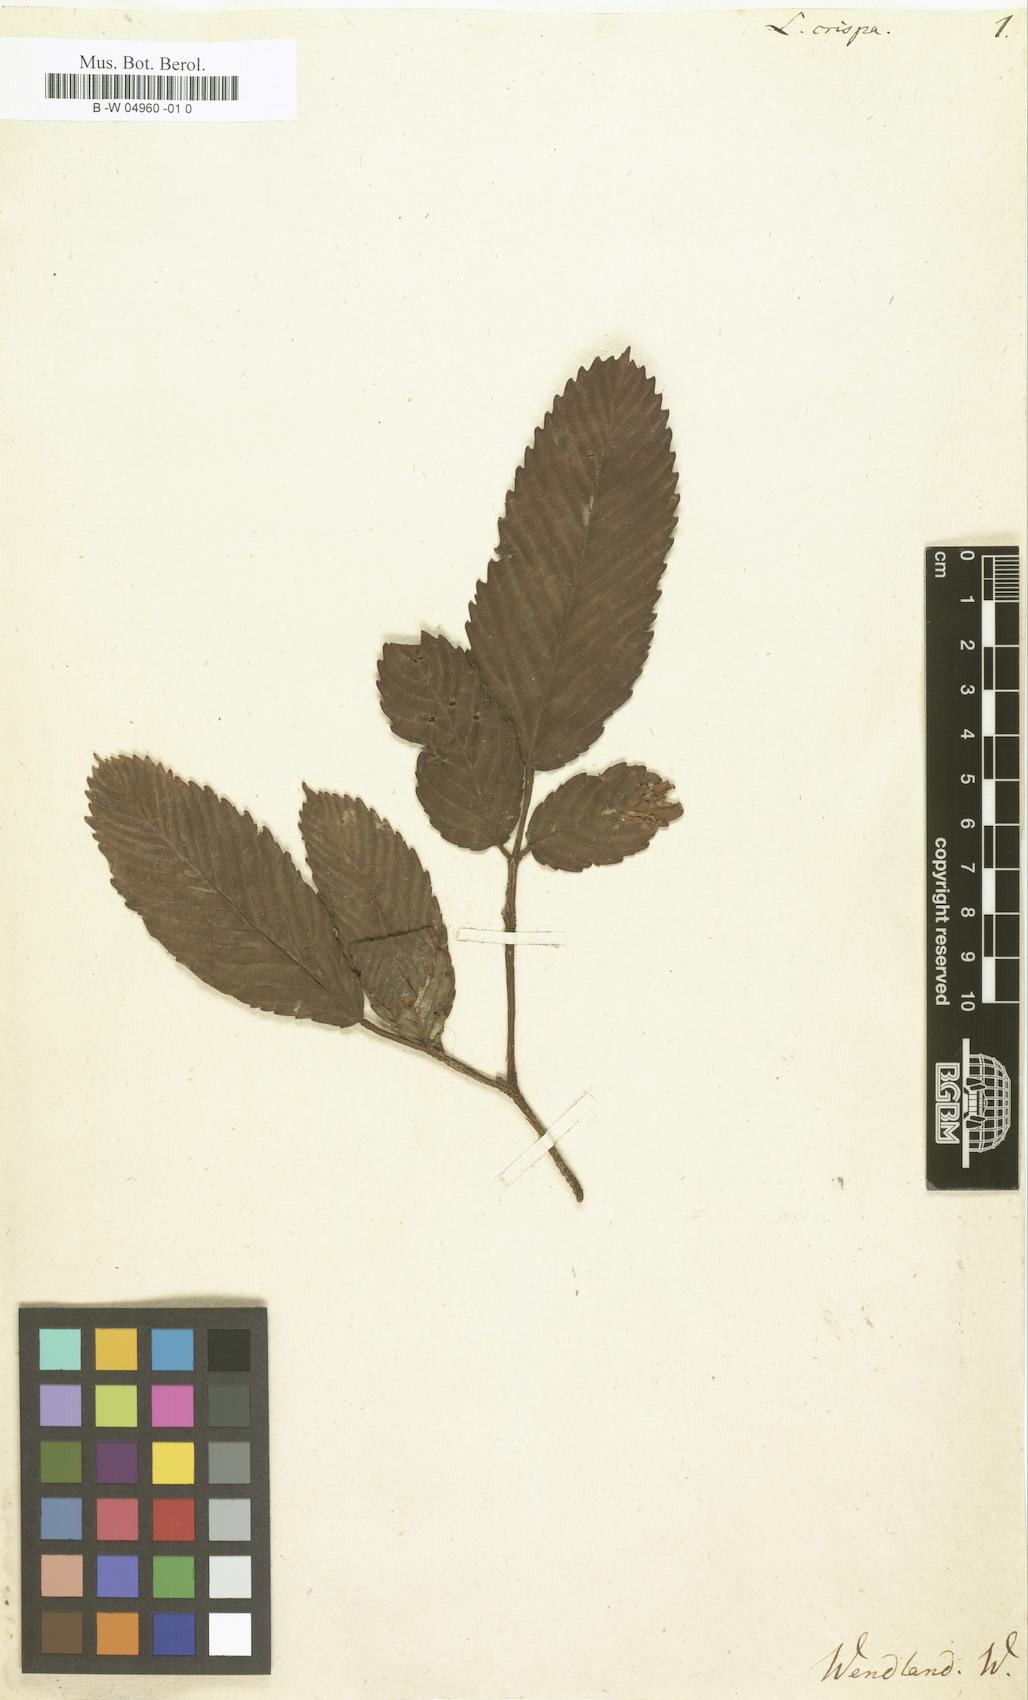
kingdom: Plantae
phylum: Tracheophyta
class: Magnoliopsida
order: Vitales
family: Vitaceae
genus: Leea
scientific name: Leea crispa
